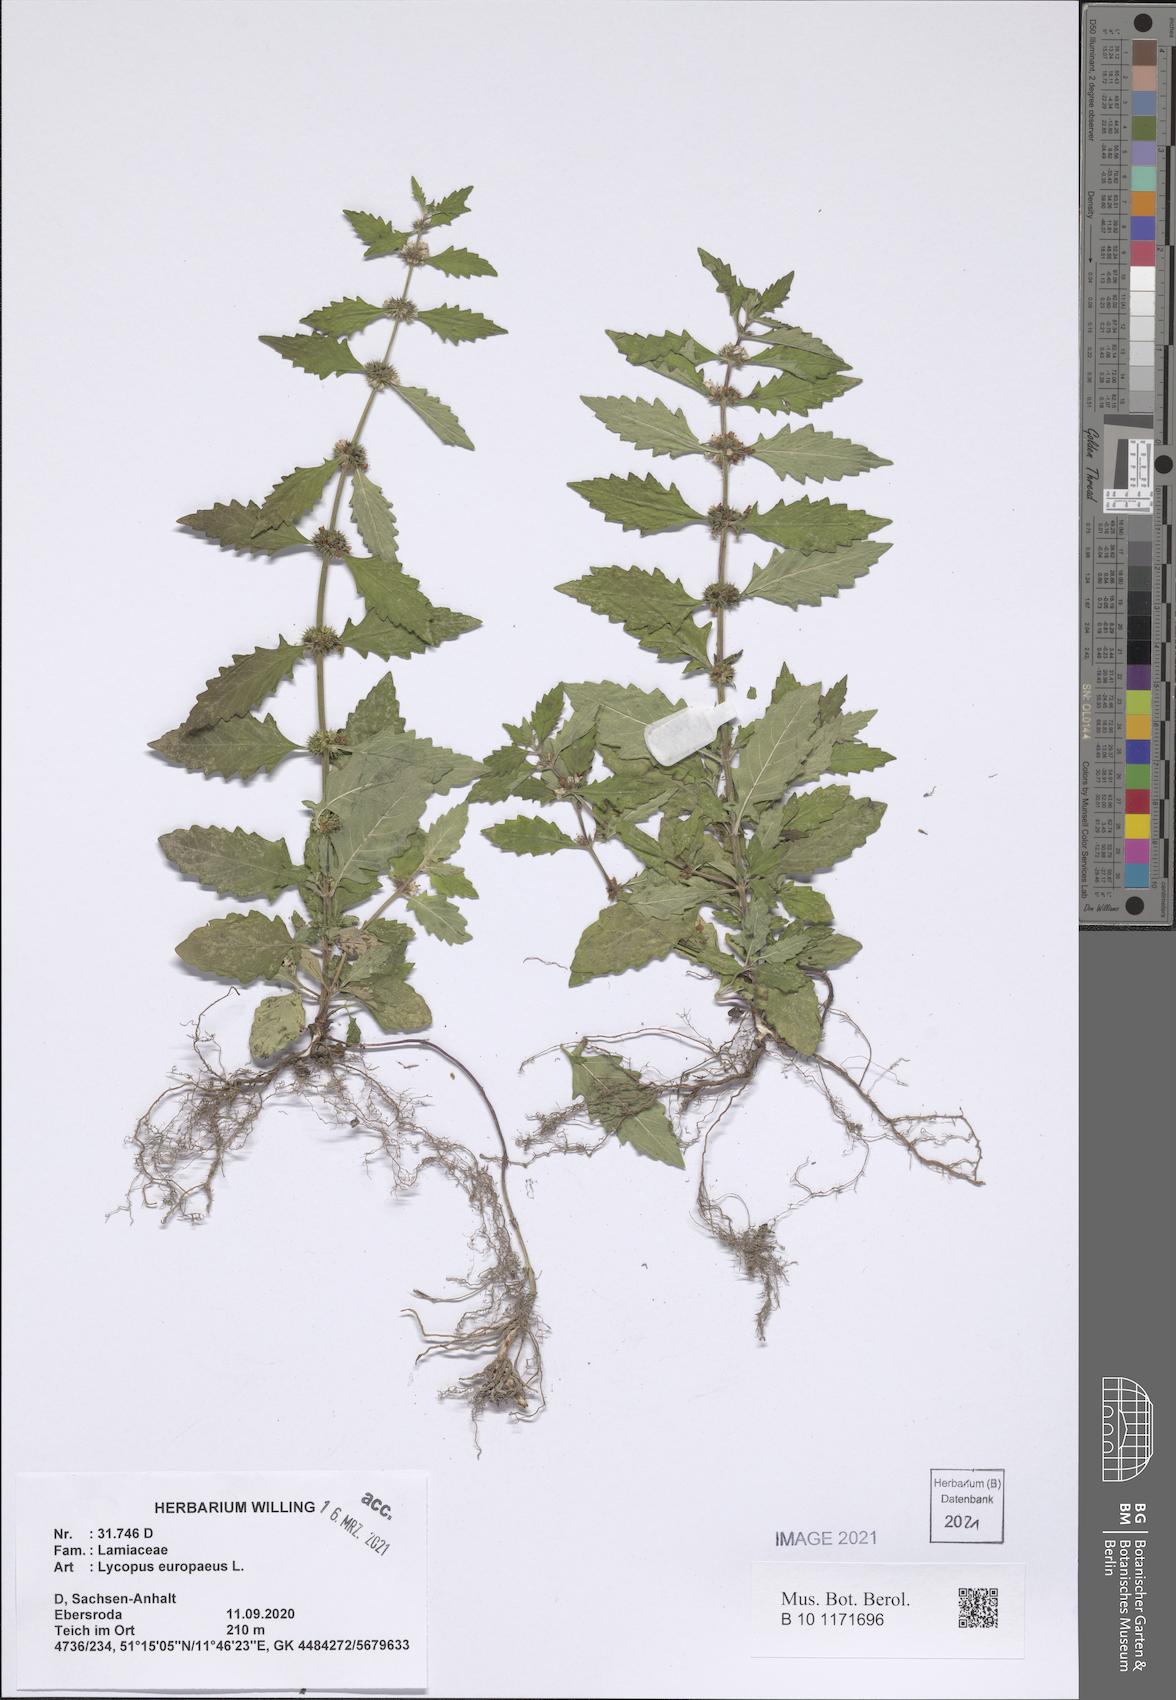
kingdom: Plantae
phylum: Tracheophyta
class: Magnoliopsida
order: Lamiales
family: Lamiaceae
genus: Lycopus
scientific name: Lycopus europaeus
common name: European bugleweed
